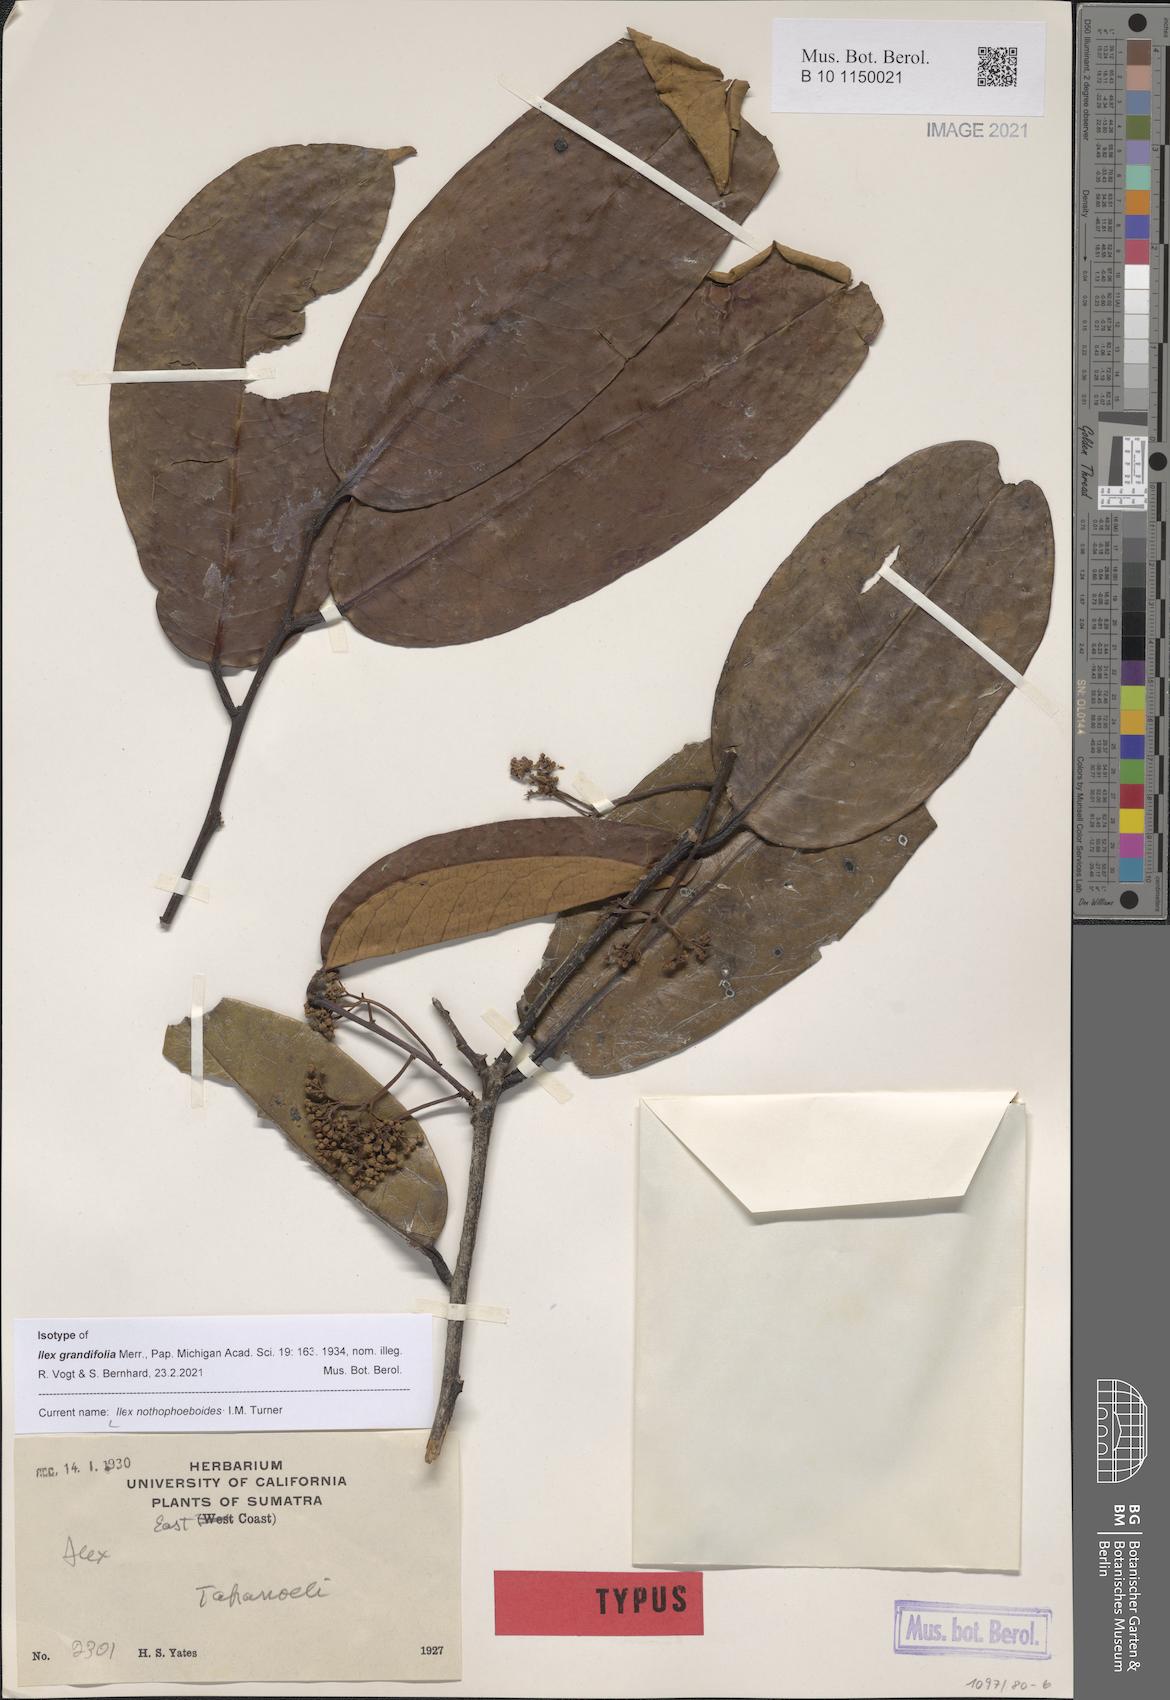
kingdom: Plantae
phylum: Tracheophyta
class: Magnoliopsida
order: Aquifoliales
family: Aquifoliaceae
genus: Ilex
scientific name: Ilex nothophoeboides
